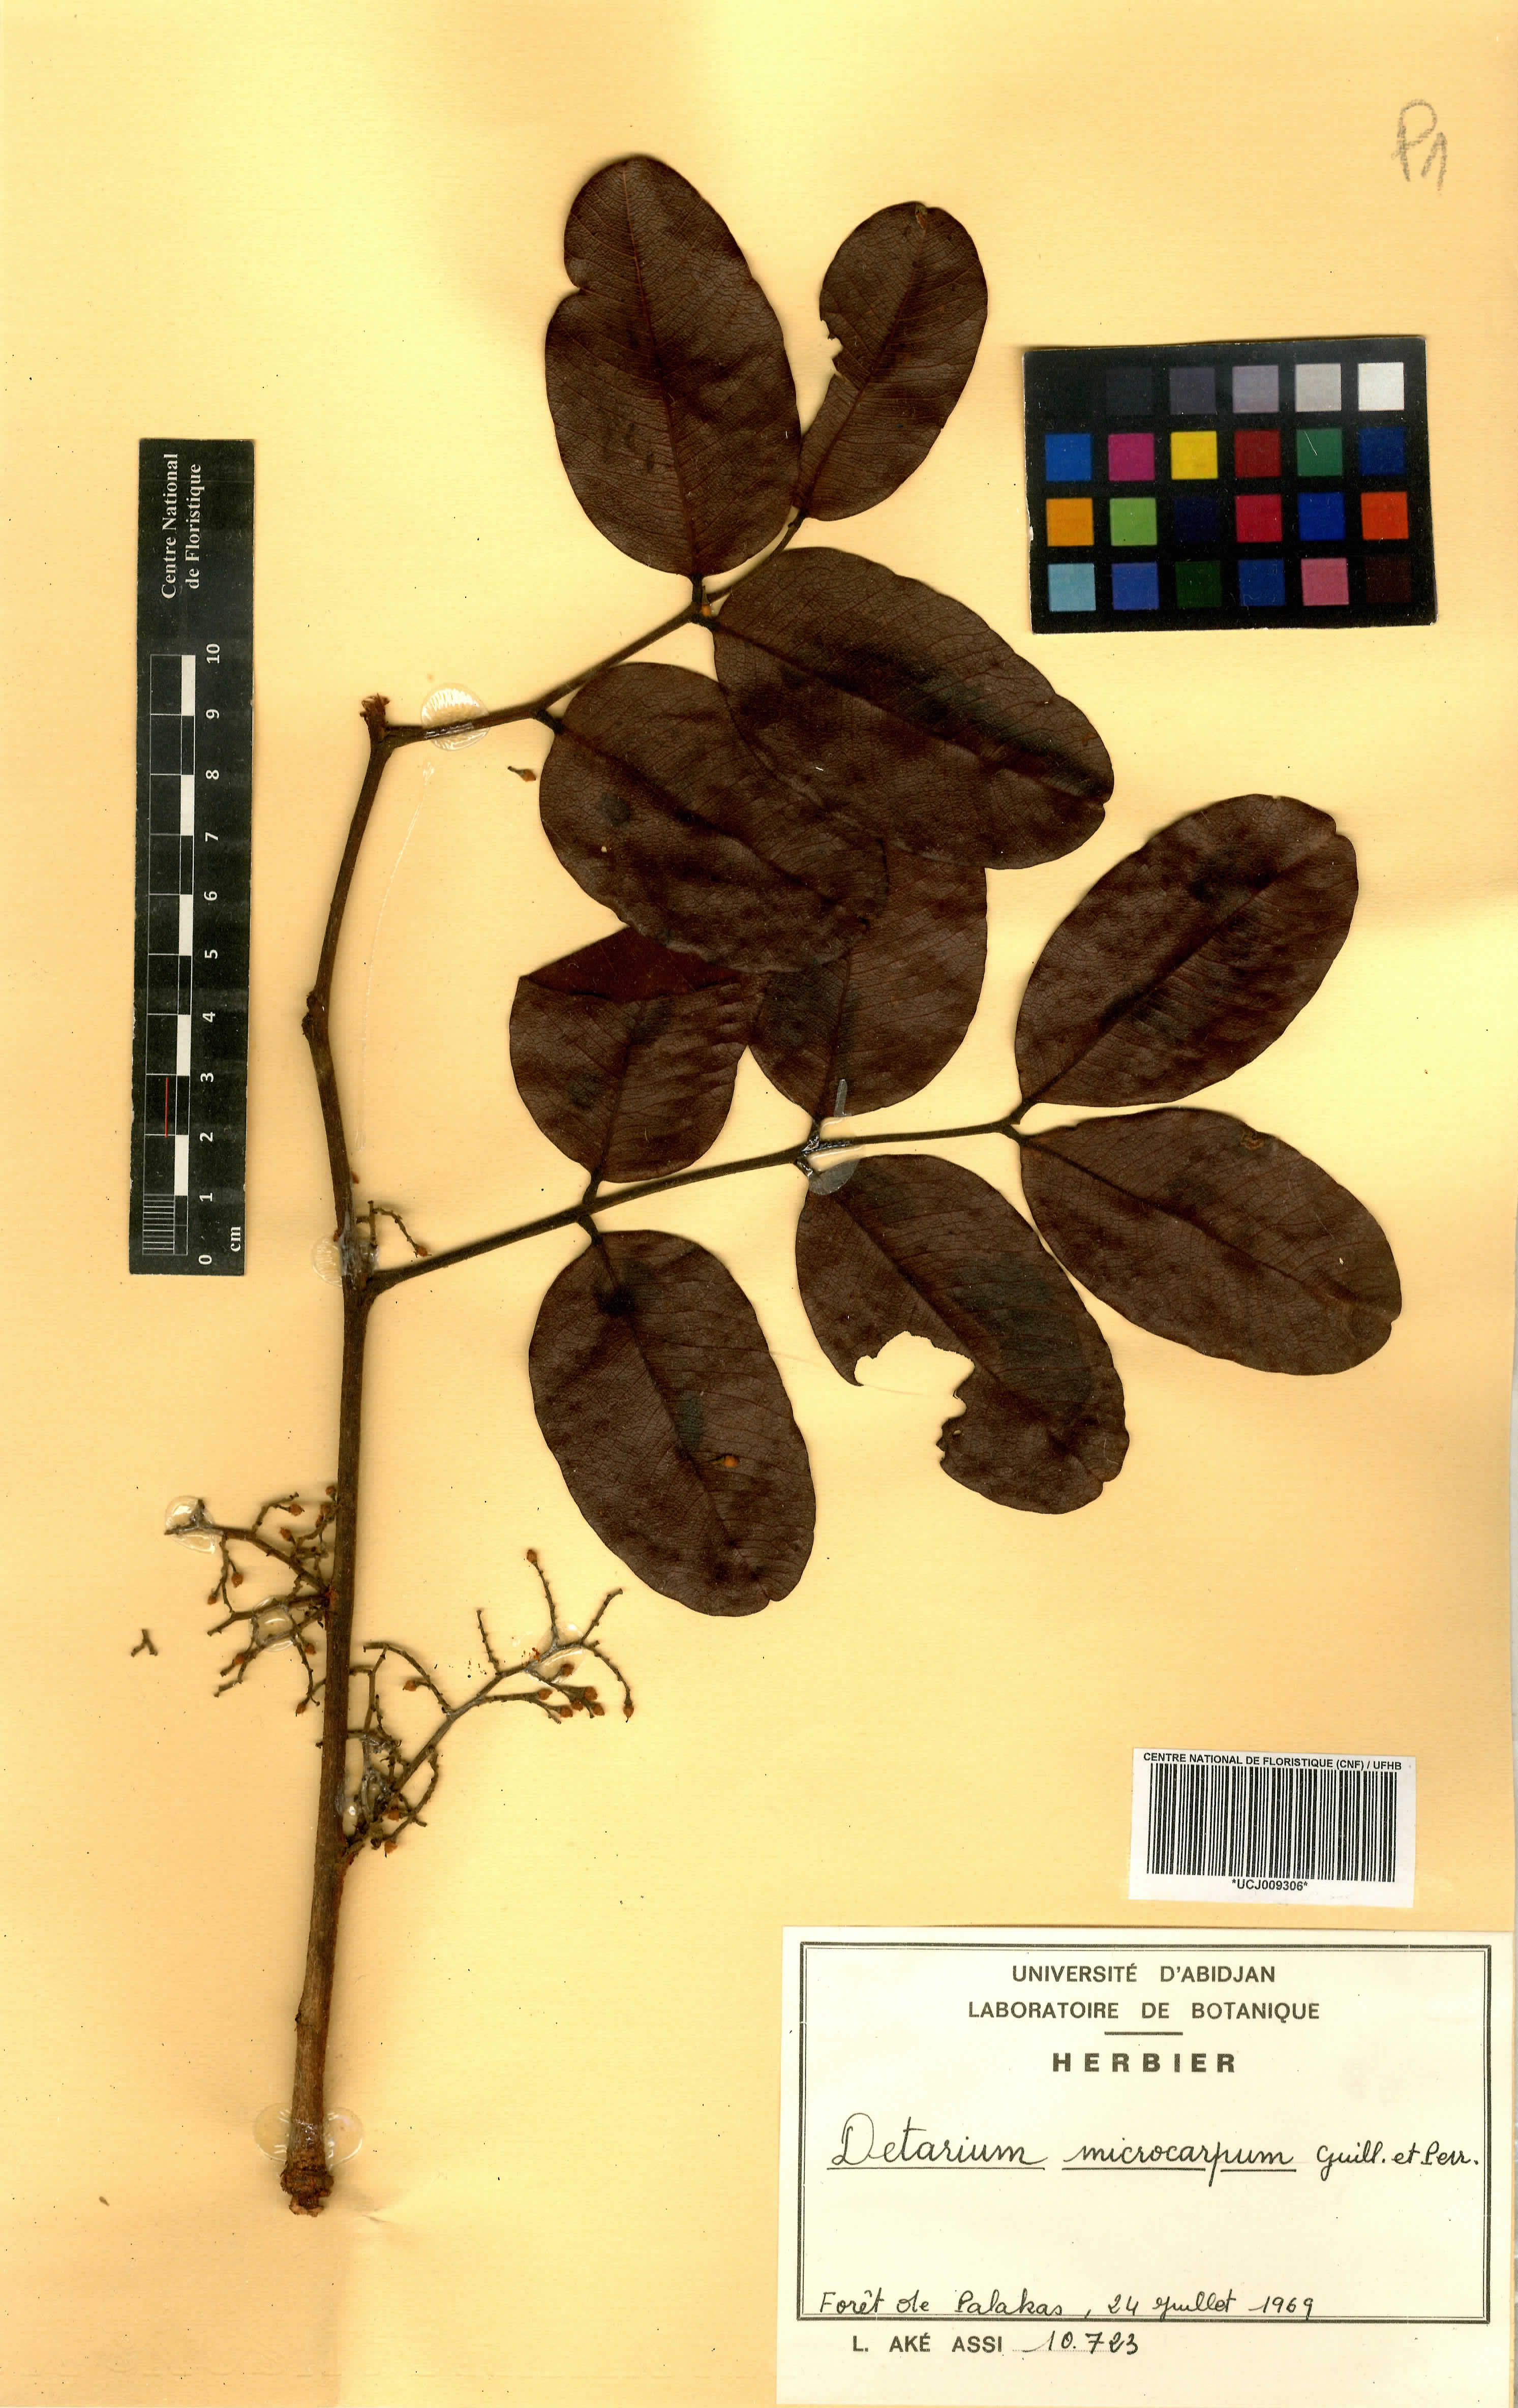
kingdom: Plantae
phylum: Tracheophyta
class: Magnoliopsida
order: Fabales
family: Fabaceae
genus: Detarium
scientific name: Detarium microcarpum
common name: Sweet dattock
